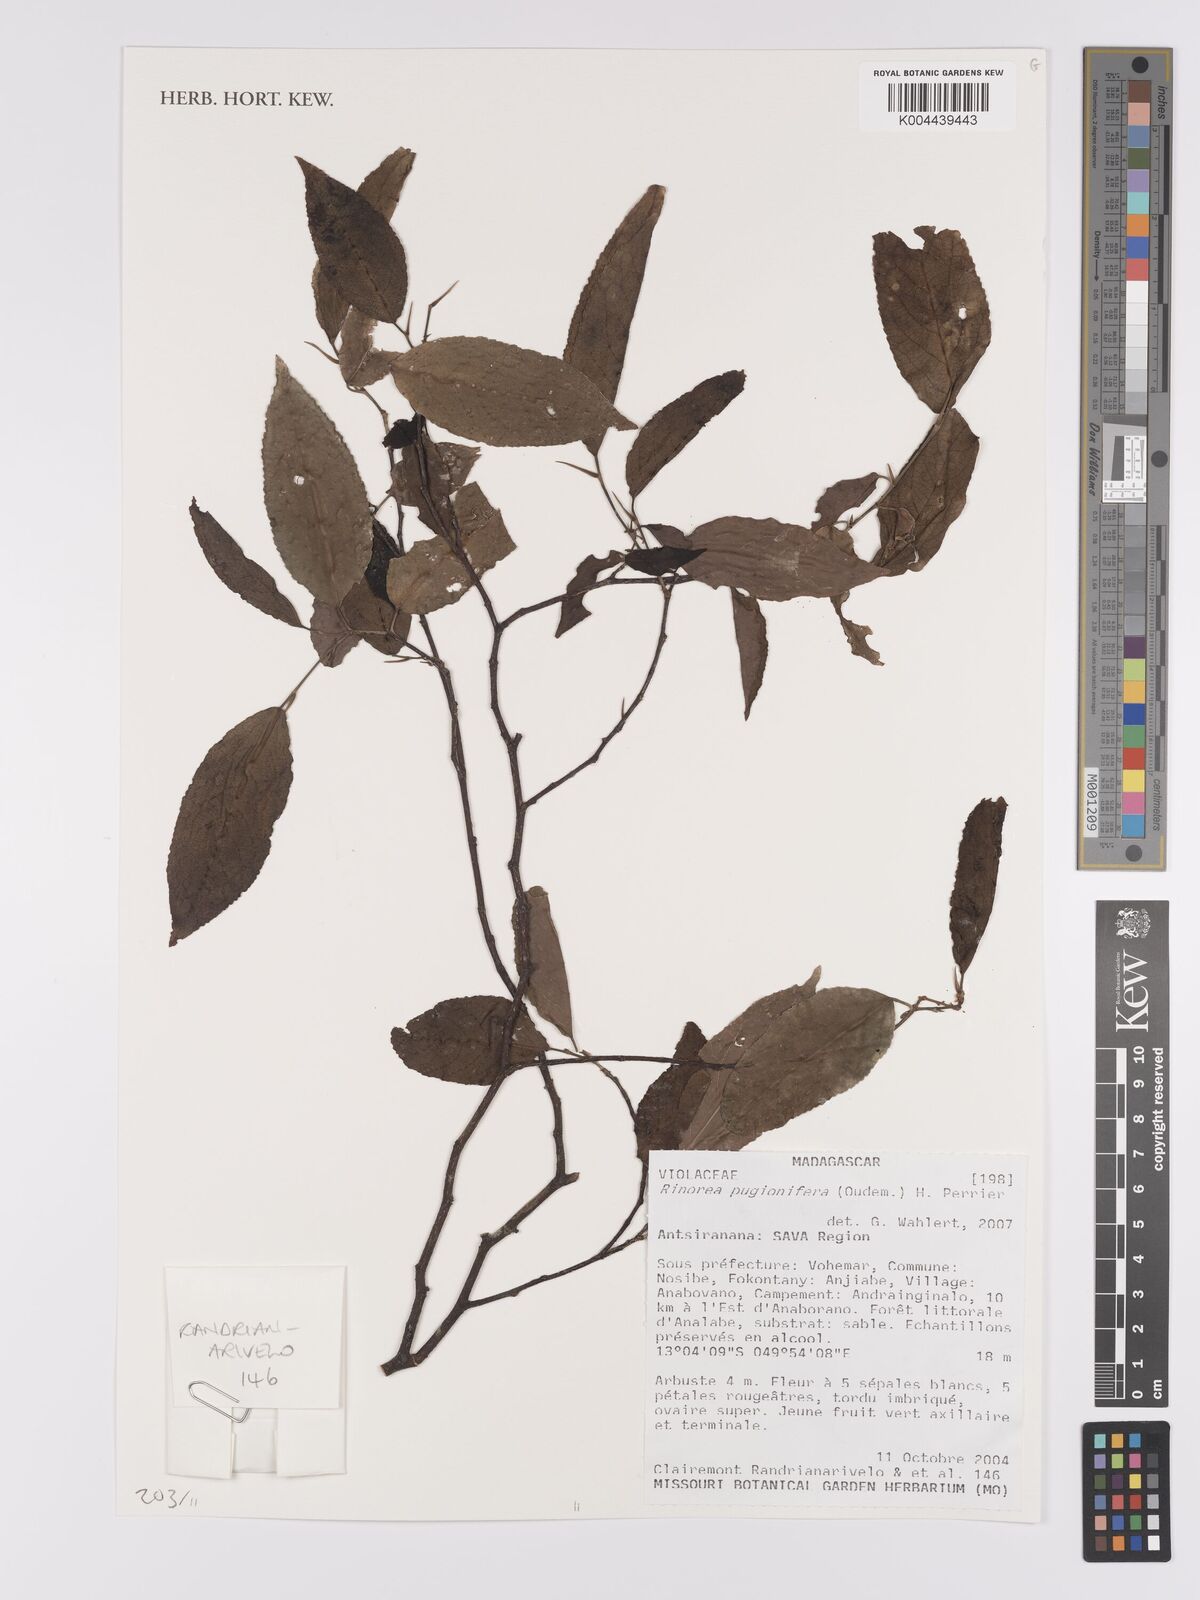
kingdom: Plantae
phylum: Tracheophyta
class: Magnoliopsida
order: Malpighiales
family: Violaceae
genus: Rinorea
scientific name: Rinorea pugionifera
